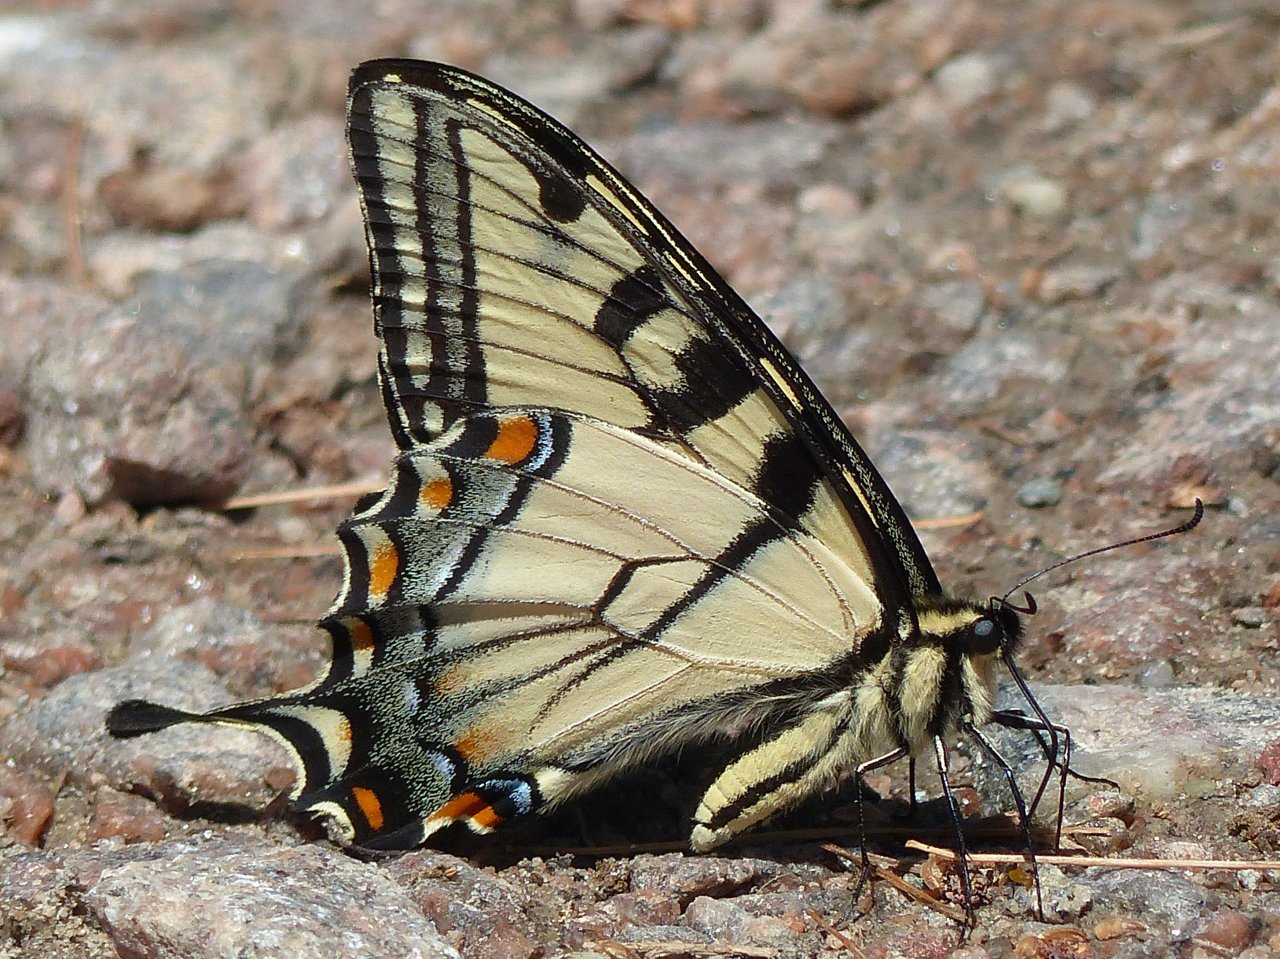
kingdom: Animalia
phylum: Arthropoda
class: Insecta
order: Lepidoptera
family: Papilionidae
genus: Pterourus
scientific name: Pterourus glaucus
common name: Eastern Tiger Swallowtail
